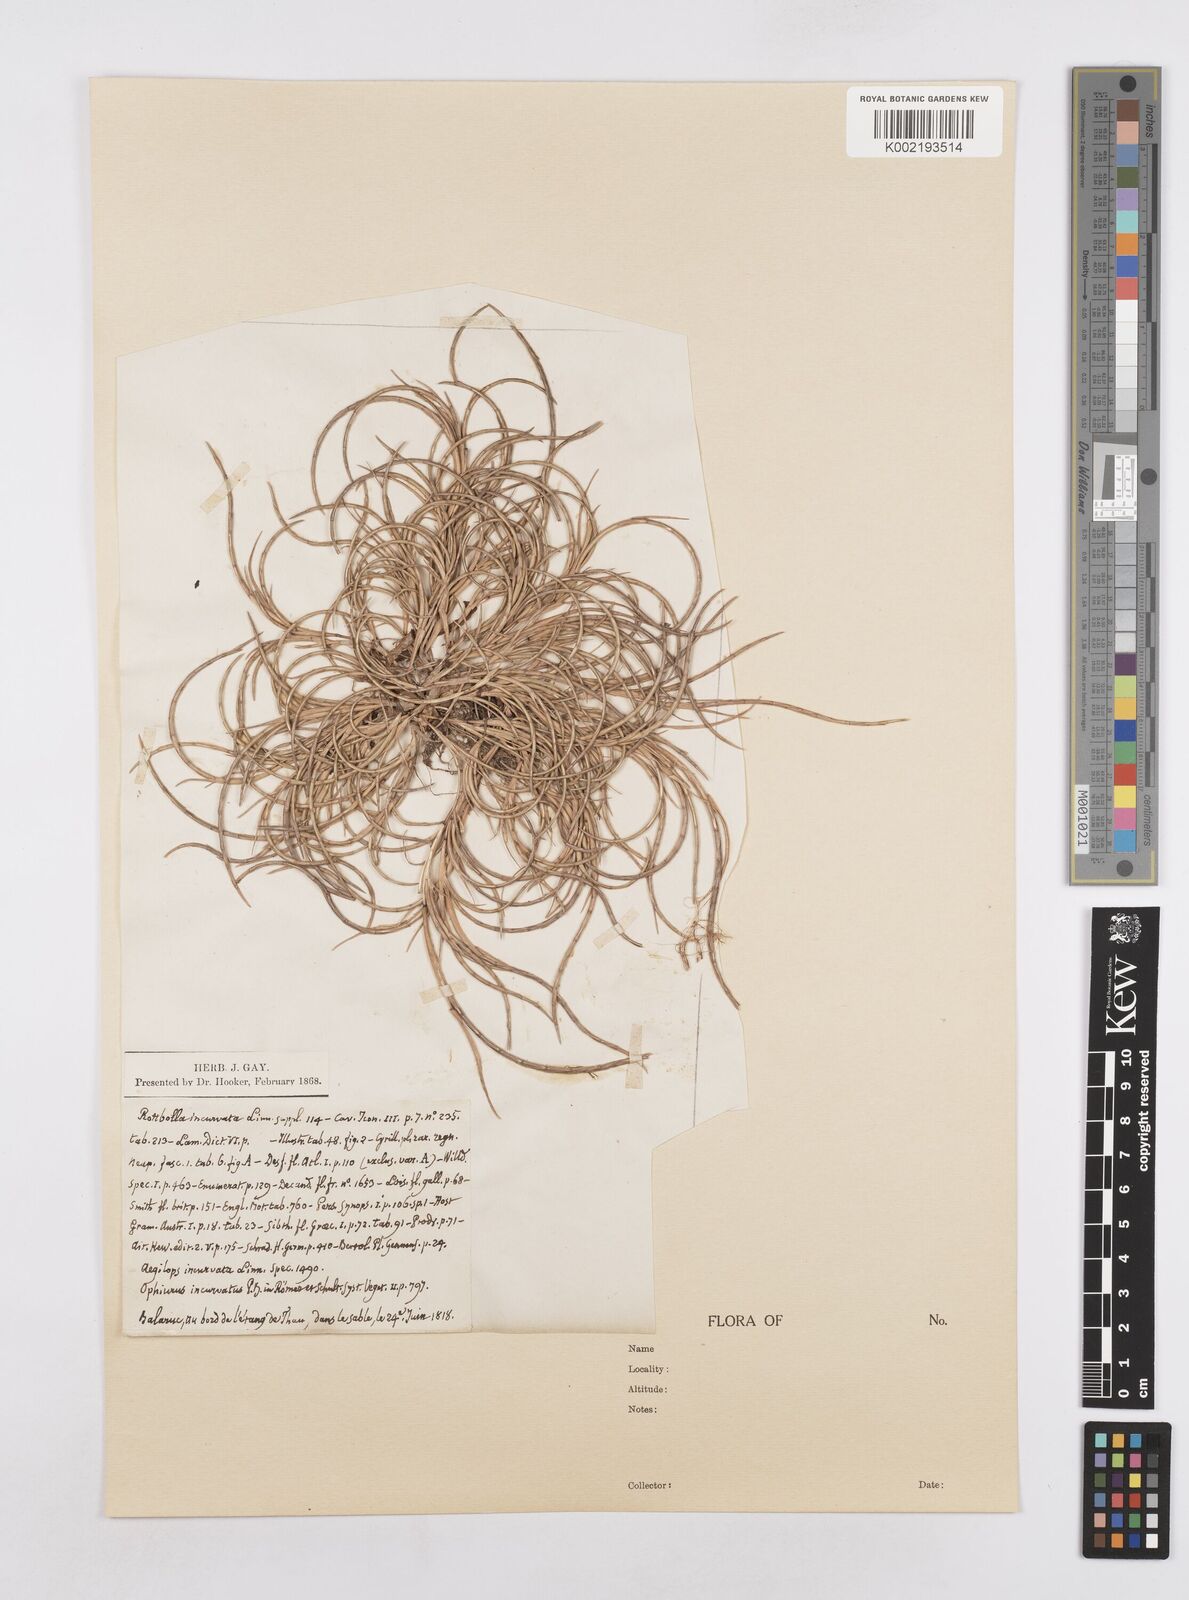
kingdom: Plantae
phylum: Tracheophyta
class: Liliopsida
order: Poales
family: Poaceae
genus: Parapholis
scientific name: Parapholis incurva
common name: Curved sicklegrass
